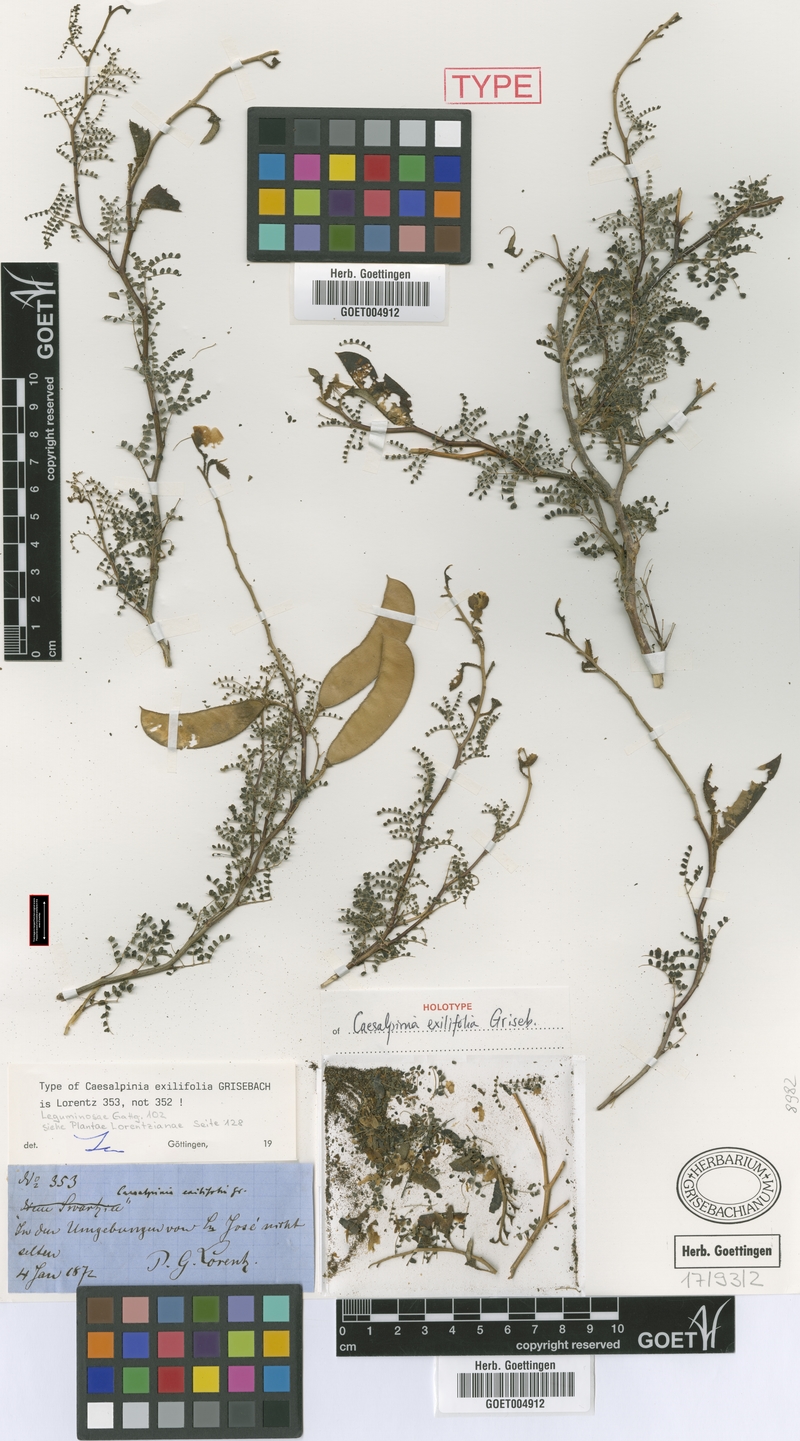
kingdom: Plantae
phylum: Tracheophyta
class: Magnoliopsida
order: Fabales
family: Fabaceae
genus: Erythrostemon
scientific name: Erythrostemon exilifolius
